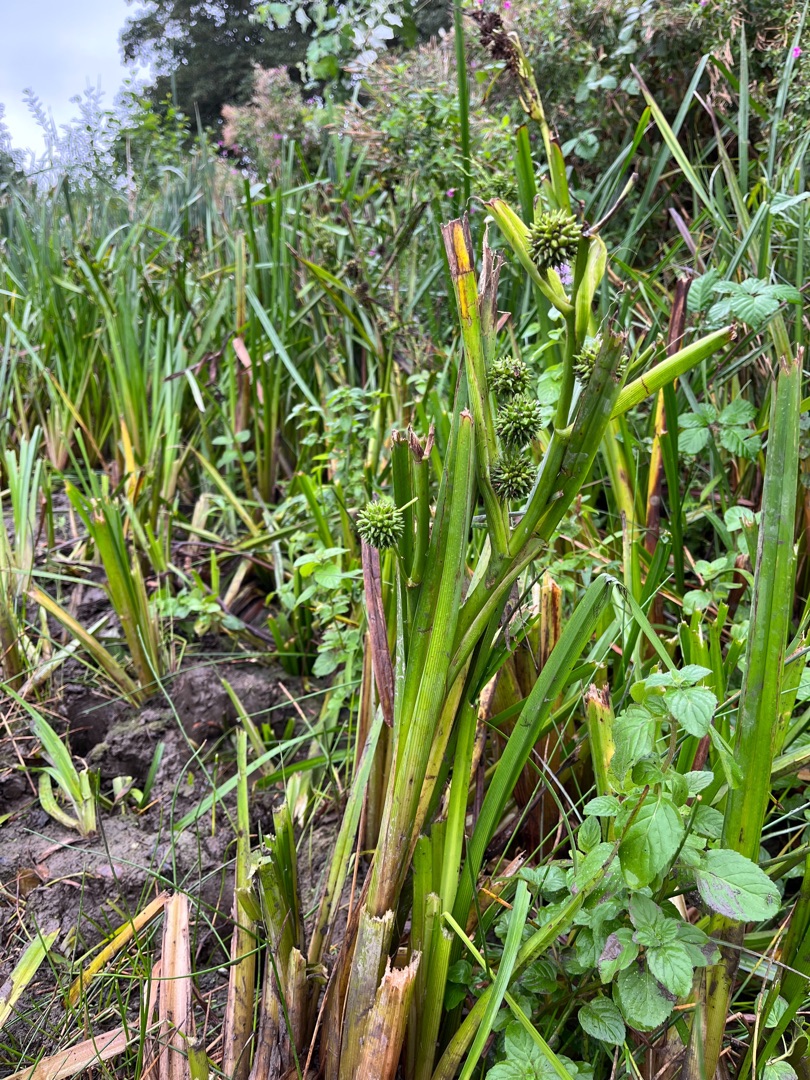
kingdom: Plantae
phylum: Tracheophyta
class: Liliopsida
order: Poales
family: Typhaceae
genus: Sparganium
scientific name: Sparganium erectum
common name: Sodfarvet pindsvineknop
